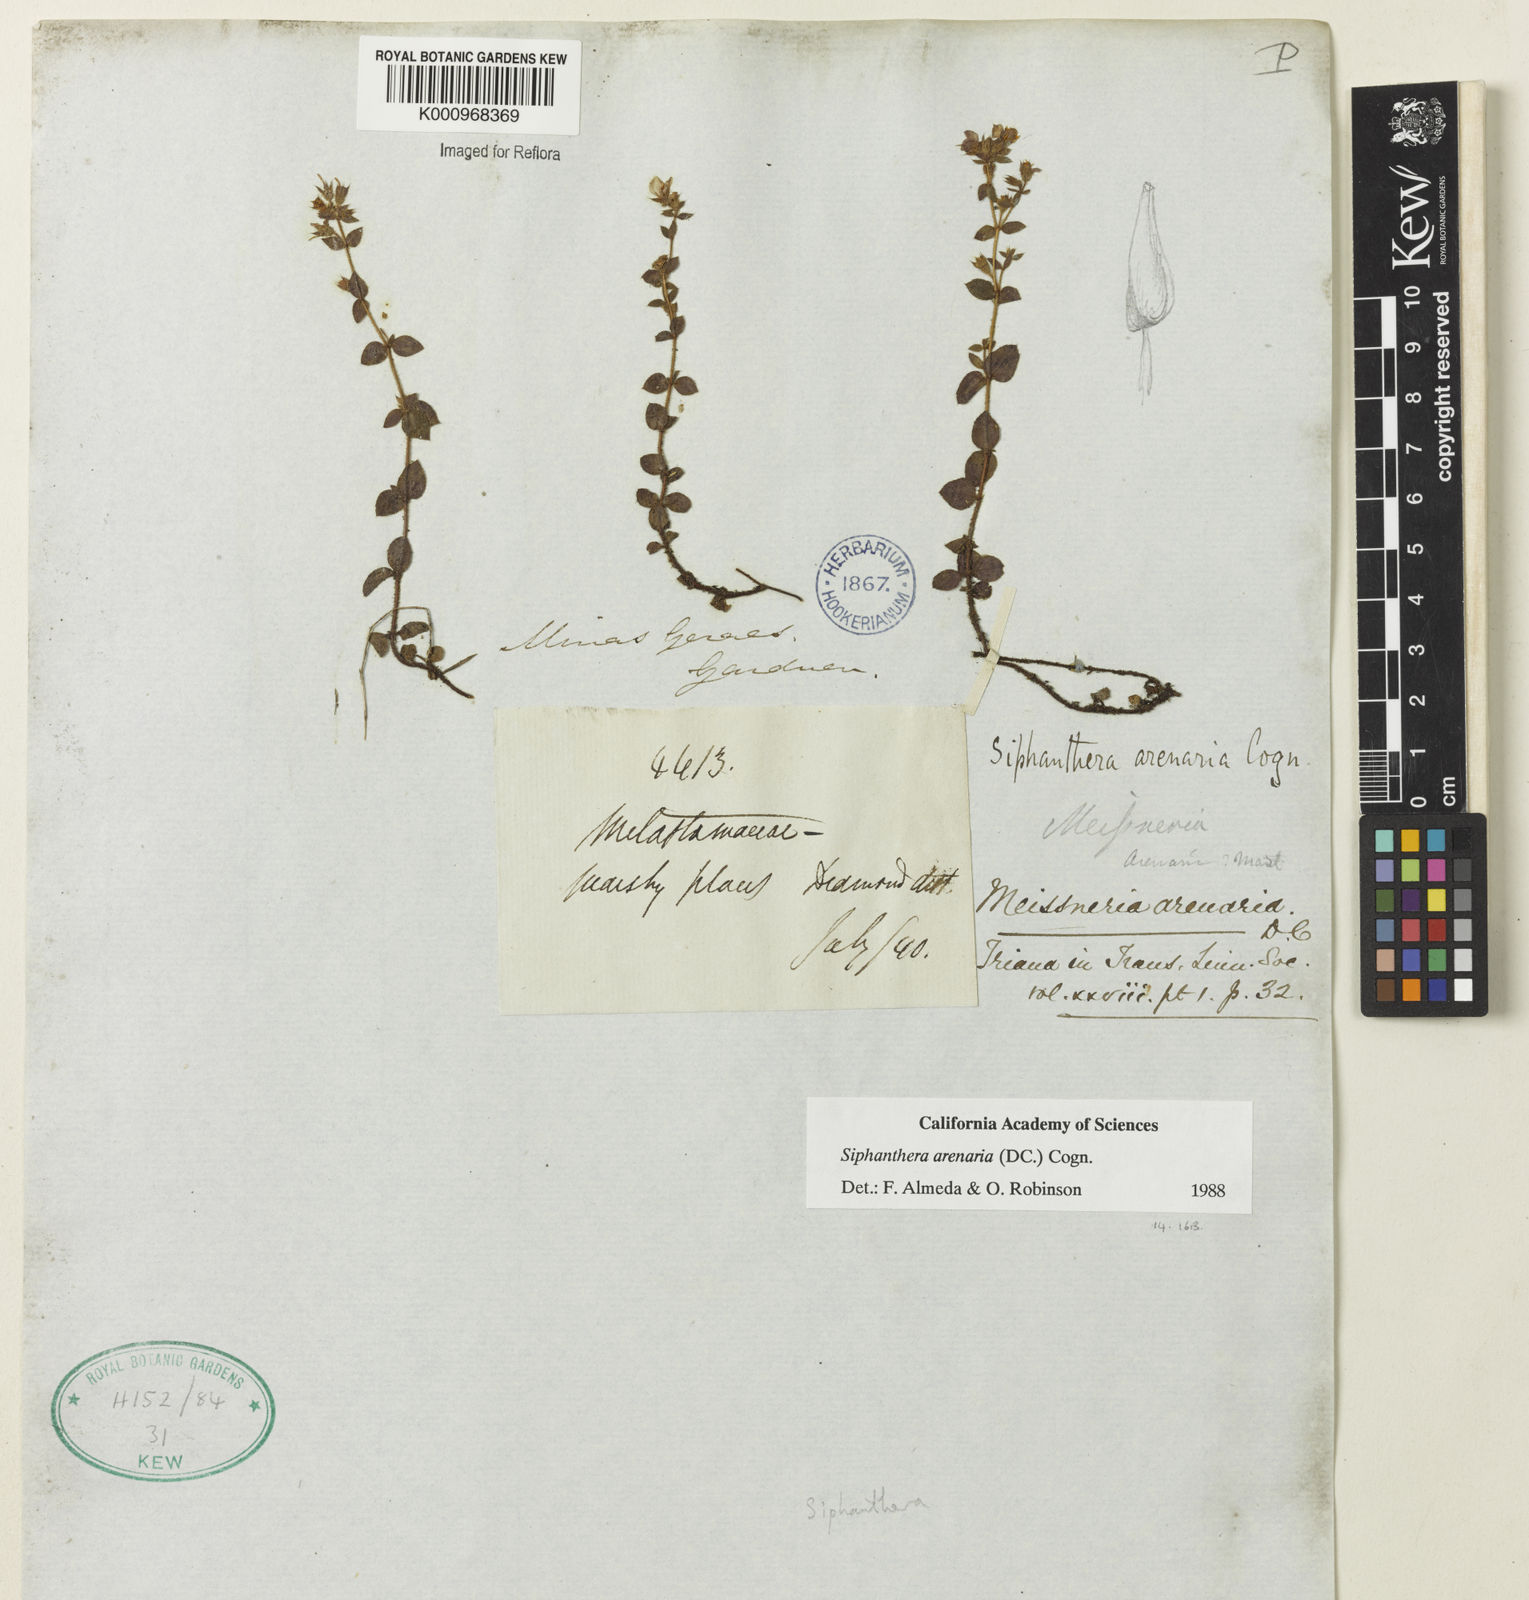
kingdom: Plantae
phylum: Tracheophyta
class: Magnoliopsida
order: Myrtales
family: Melastomataceae
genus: Siphanthera
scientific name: Siphanthera arenaria
